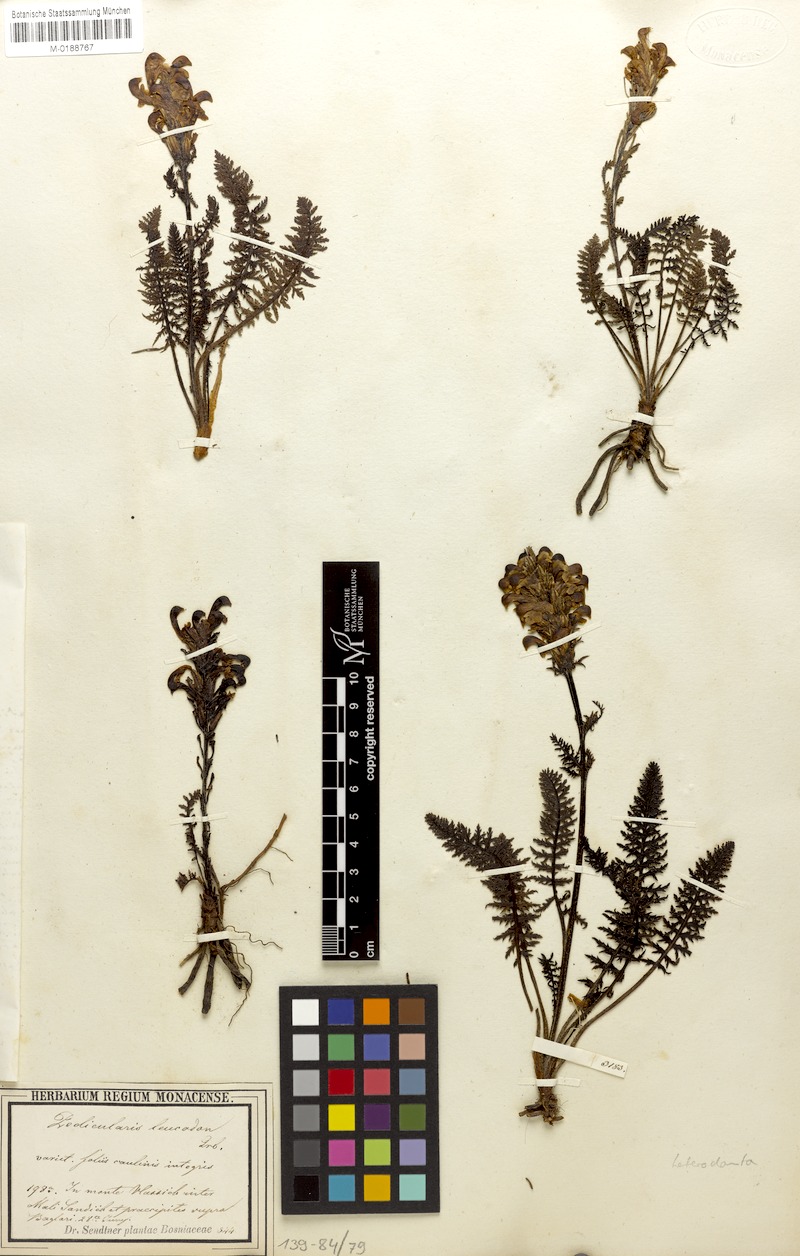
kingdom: Plantae
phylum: Tracheophyta
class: Magnoliopsida
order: Lamiales
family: Orobanchaceae
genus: Pedicularis
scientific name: Pedicularis leucodon
